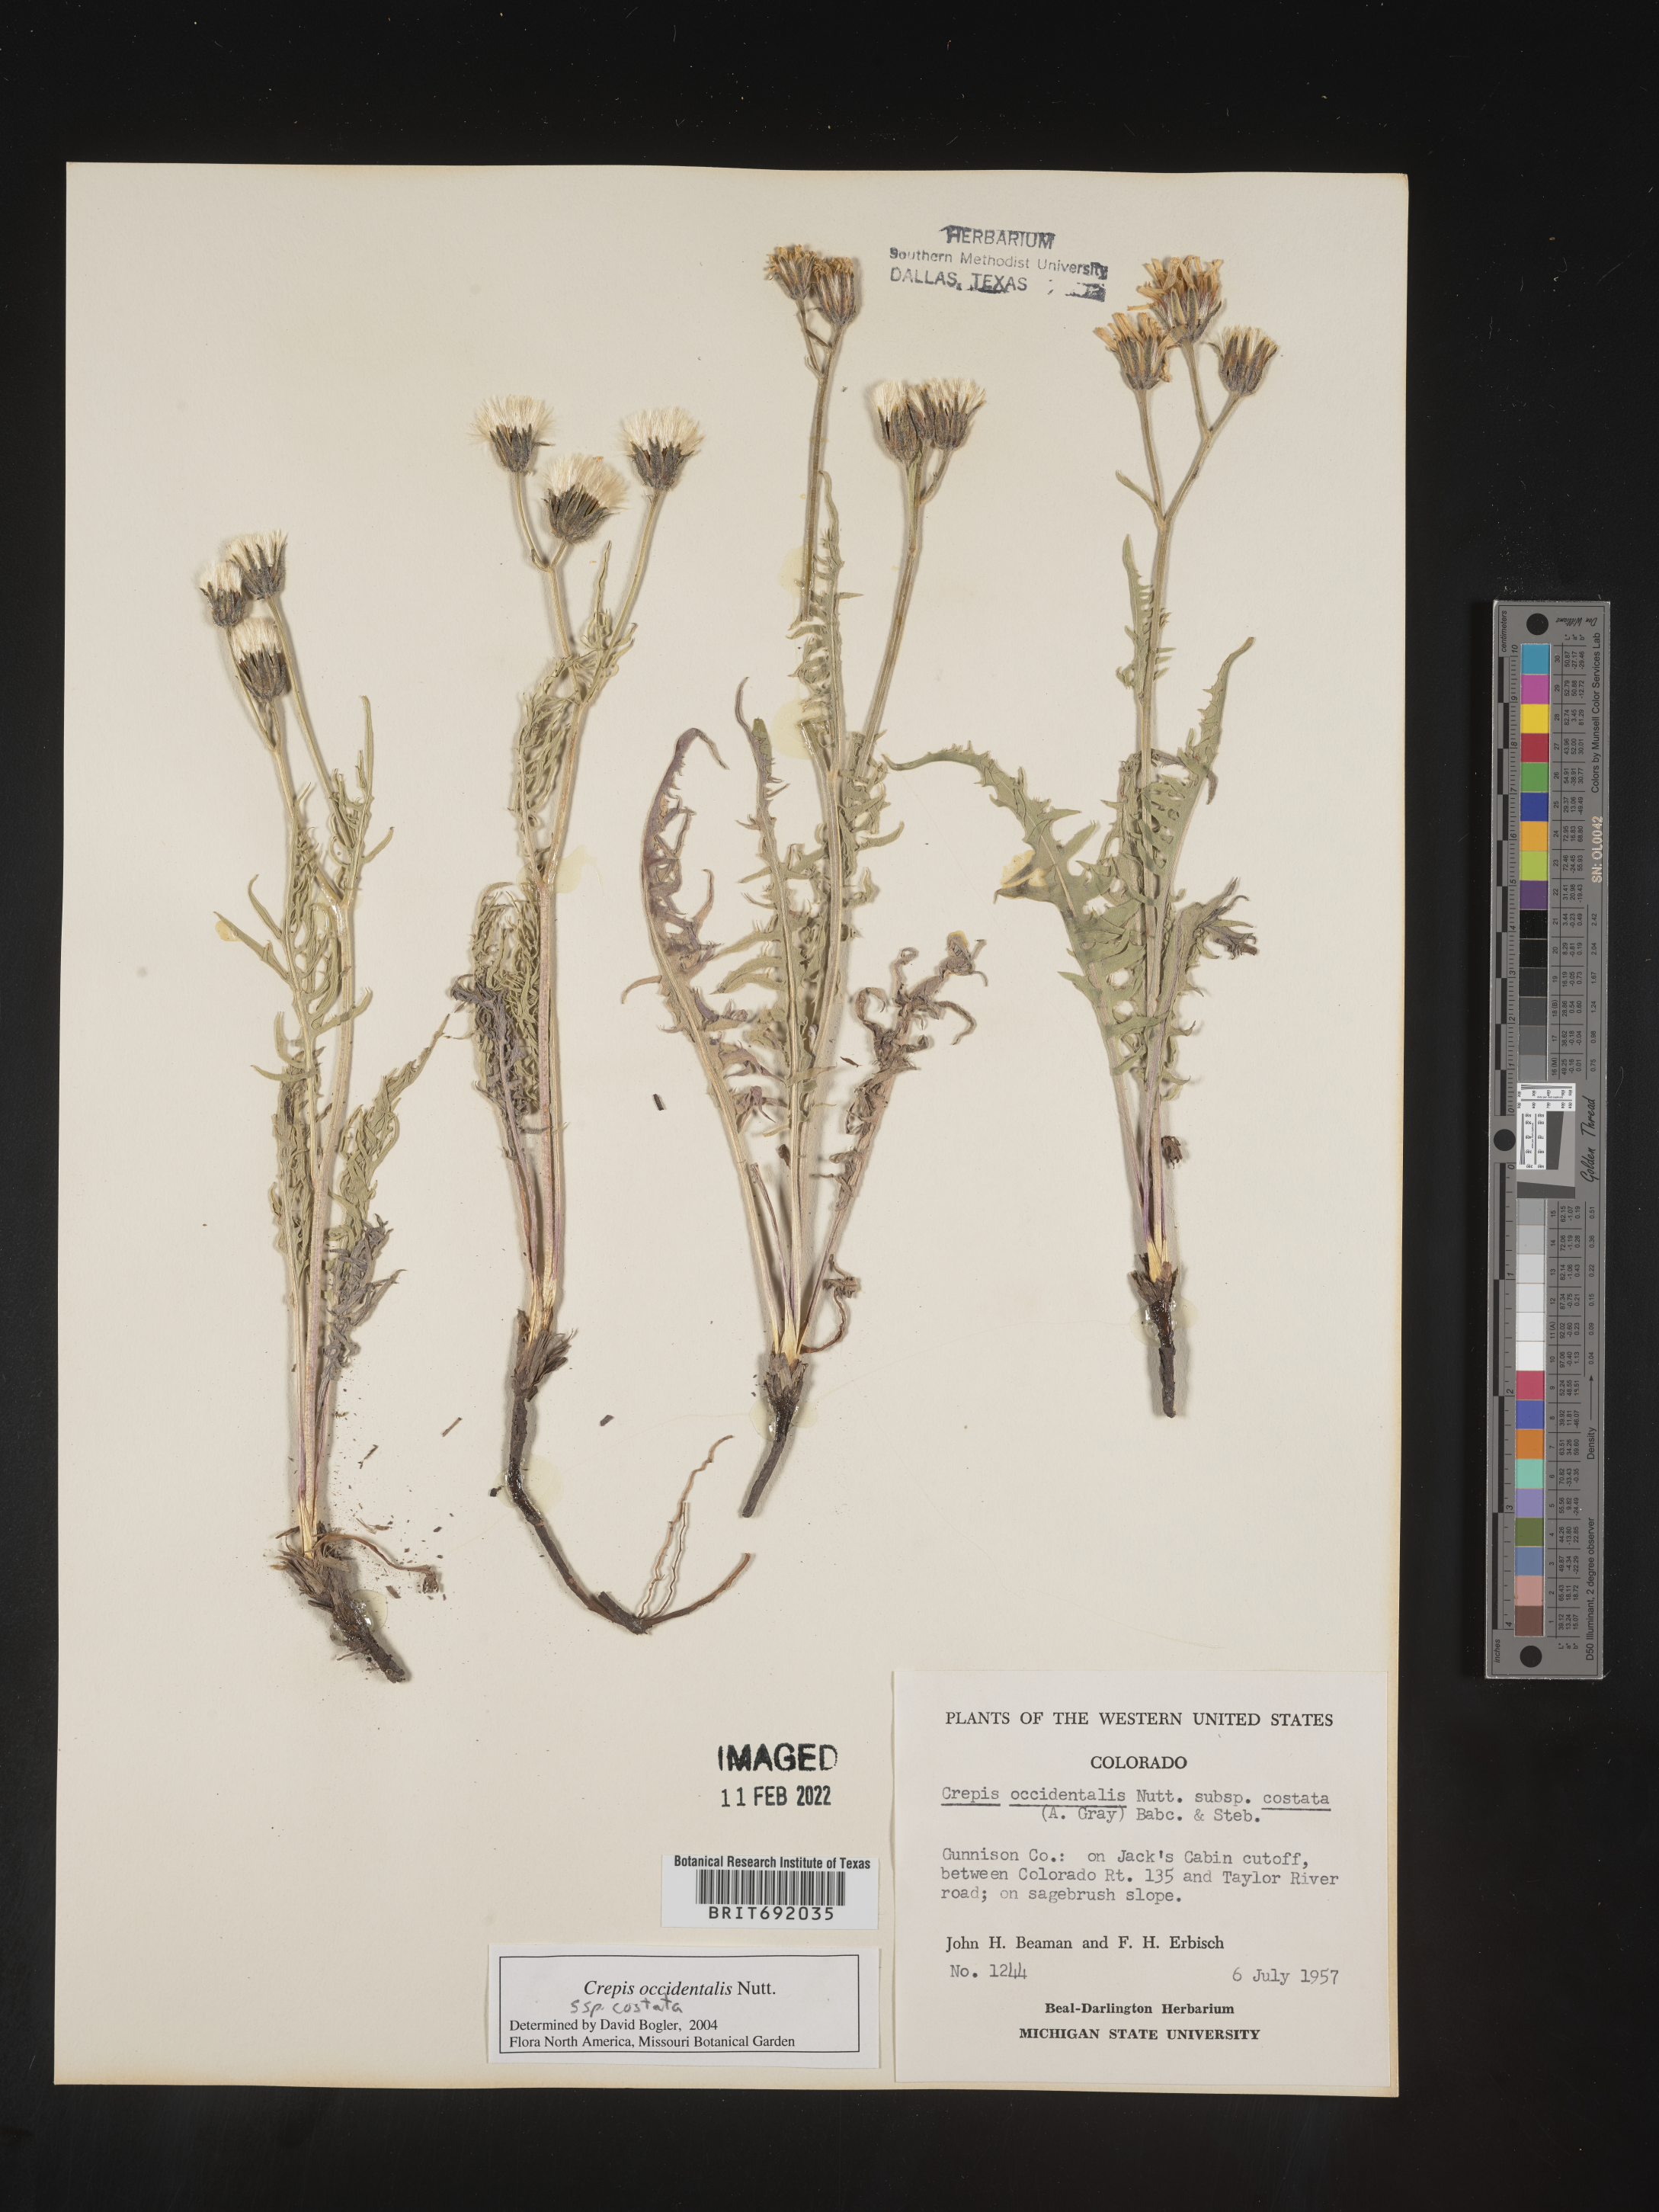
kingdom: Plantae
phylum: Tracheophyta
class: Magnoliopsida
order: Asterales
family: Asteraceae
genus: Crepis
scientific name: Crepis occidentalis
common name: Gray hawk's-beard
